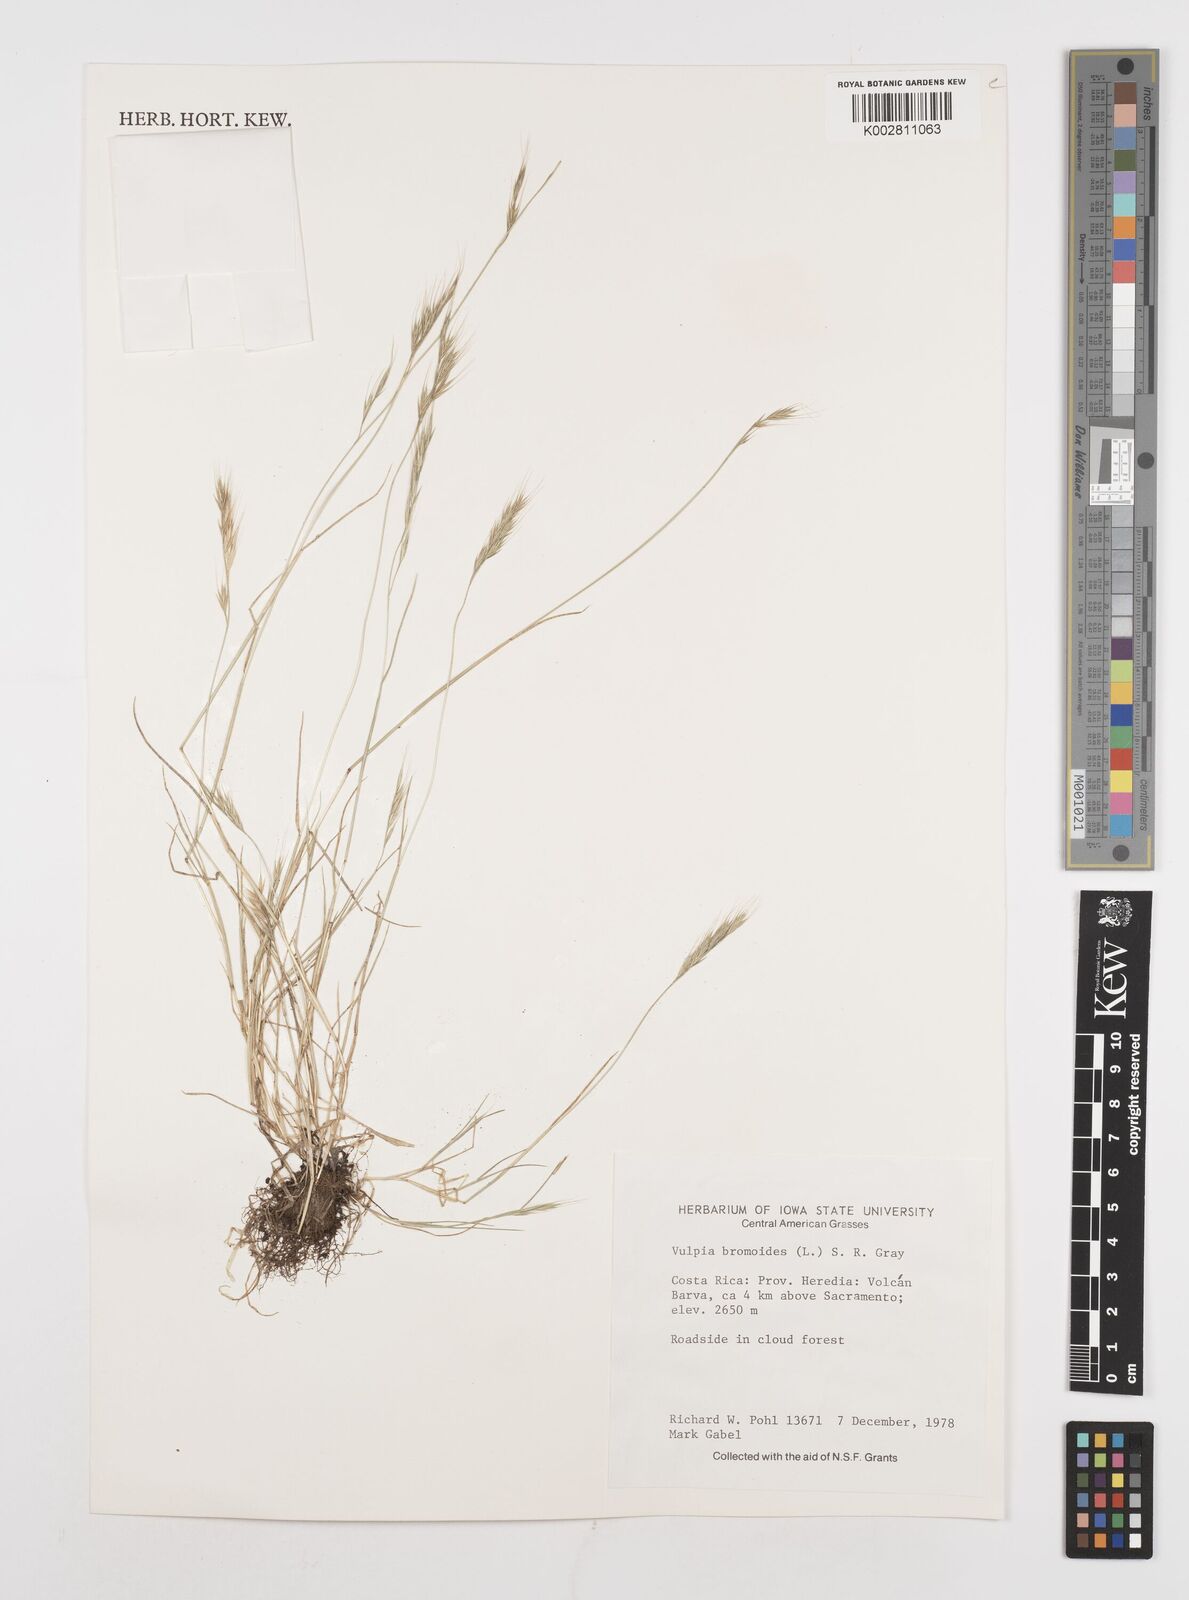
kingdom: Plantae
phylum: Tracheophyta
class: Liliopsida
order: Poales
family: Poaceae
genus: Festuca
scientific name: Festuca bromoides
